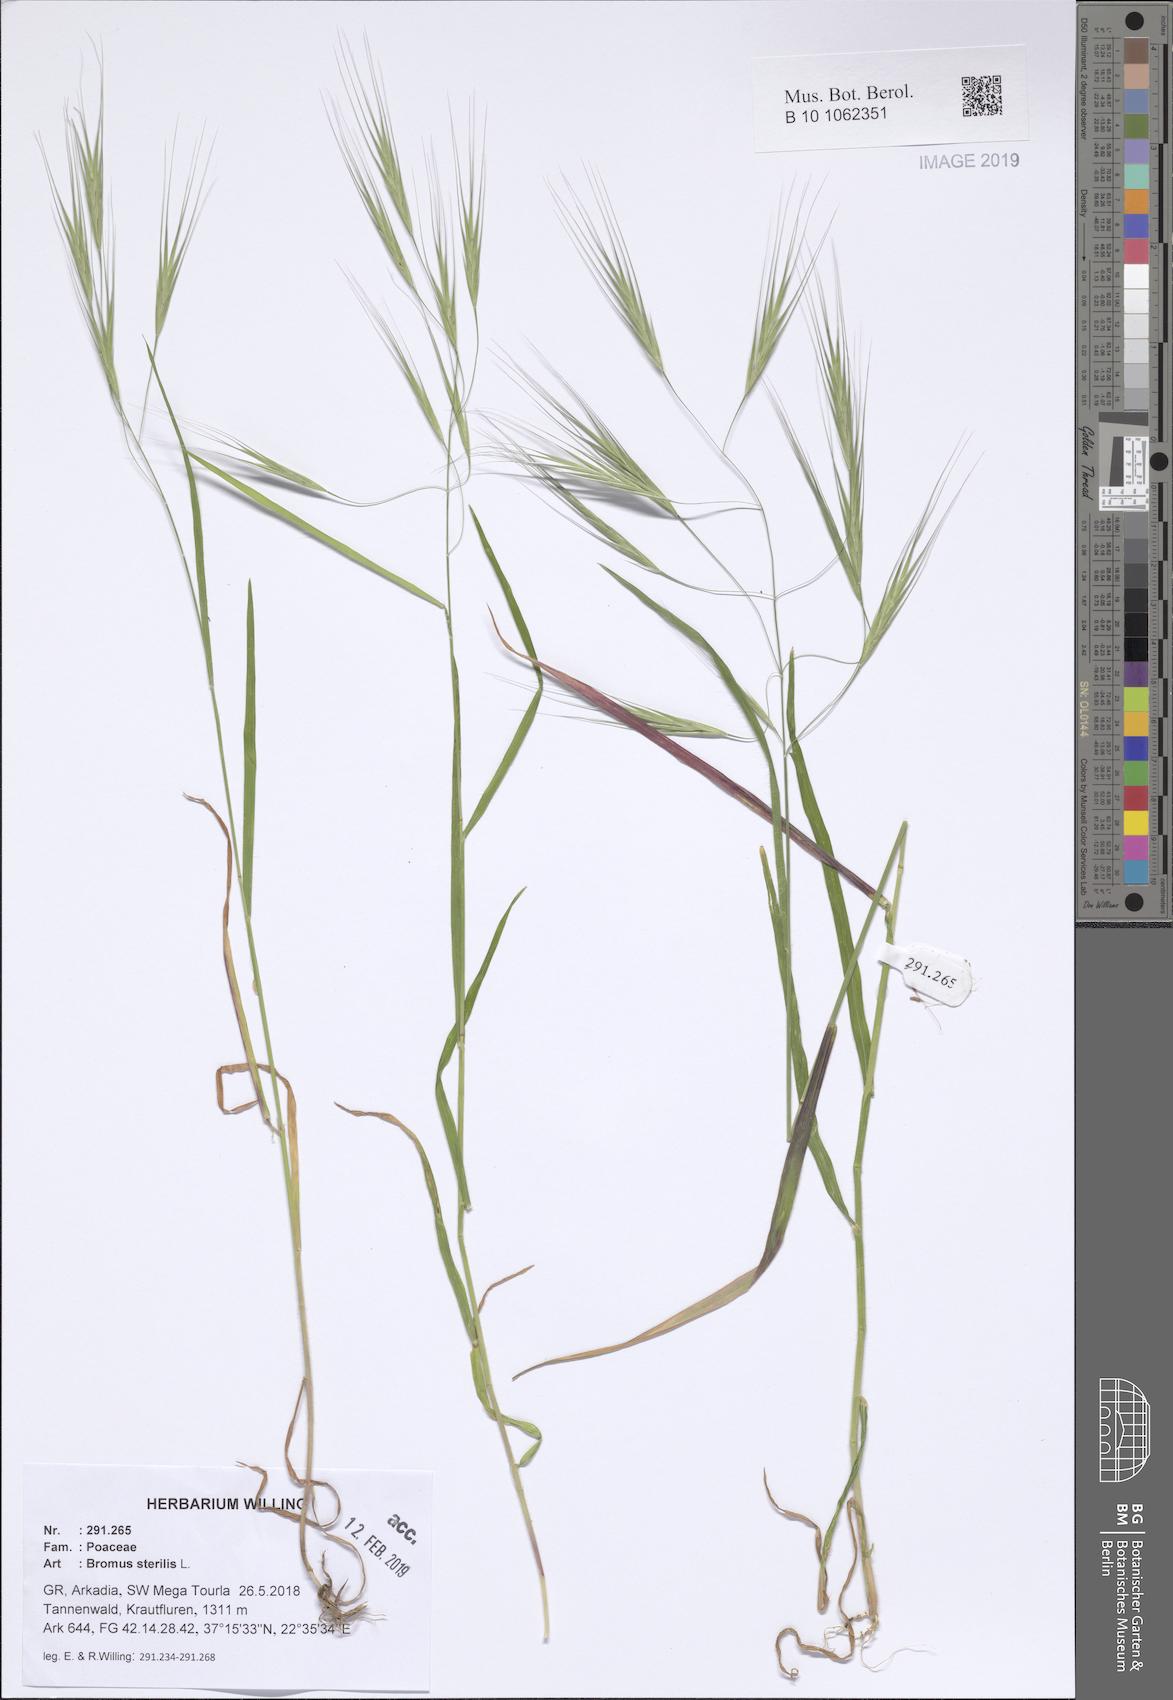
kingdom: Plantae
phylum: Tracheophyta
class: Liliopsida
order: Poales
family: Poaceae
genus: Bromus
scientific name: Bromus sterilis
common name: Poverty brome
